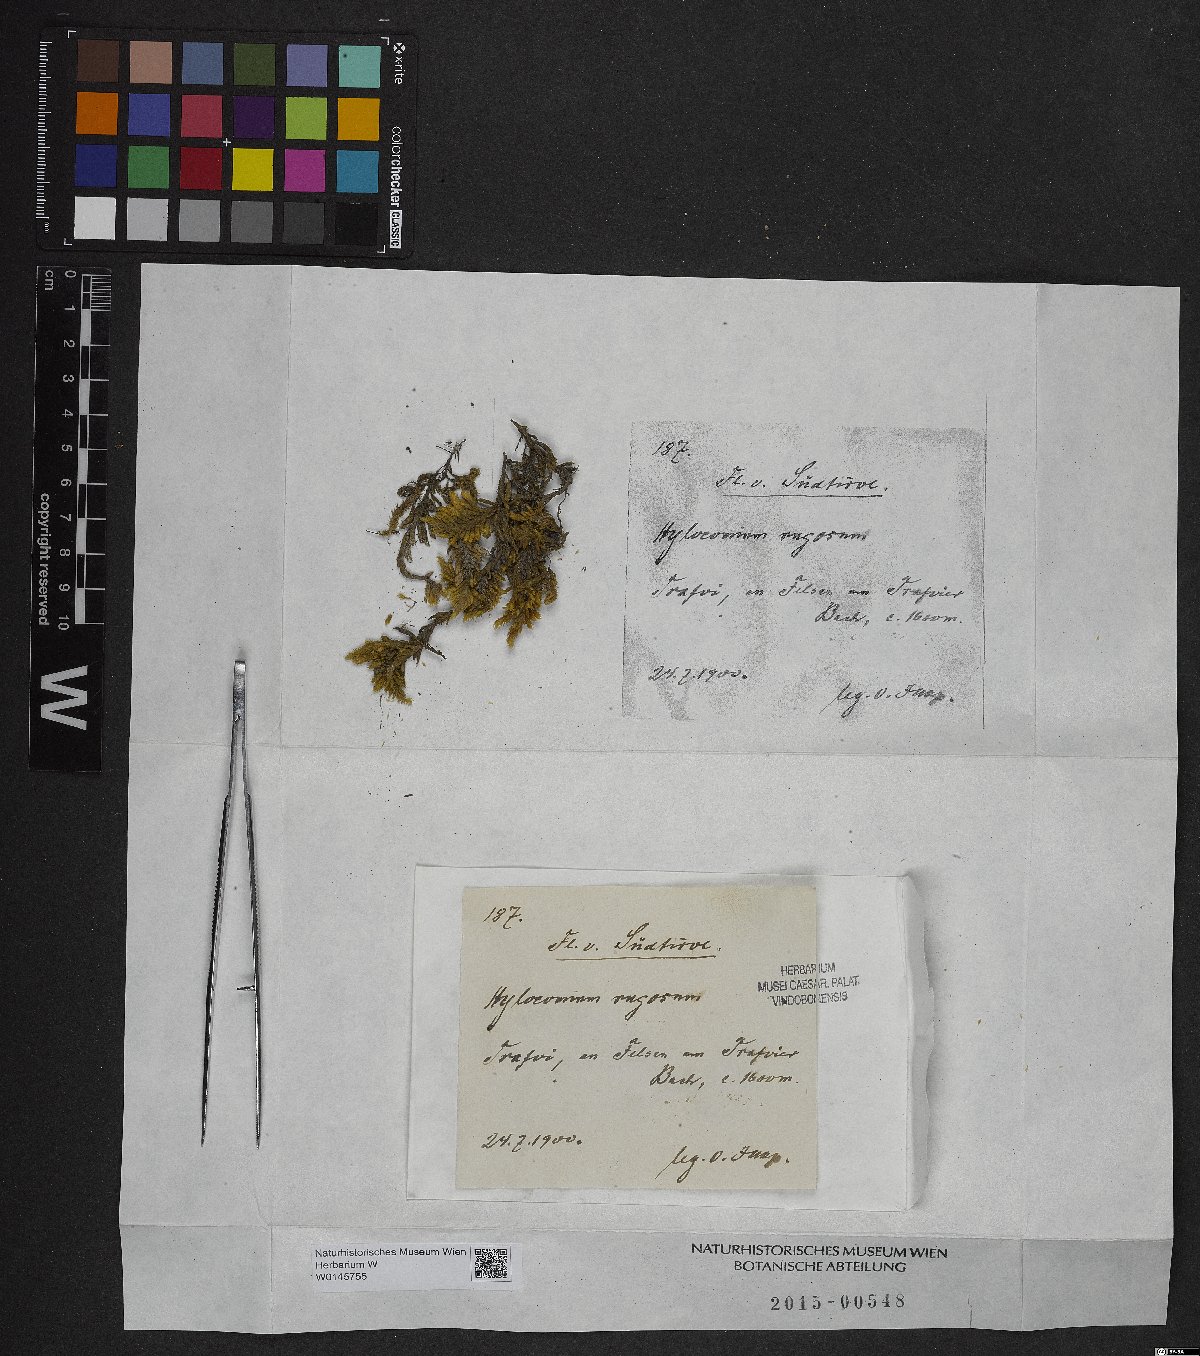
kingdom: Plantae
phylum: Bryophyta
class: Bryopsida
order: Hypnales
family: Rhytidiaceae
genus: Rhytidium
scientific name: Rhytidium rugosum
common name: Wrinkle-leaved moss
